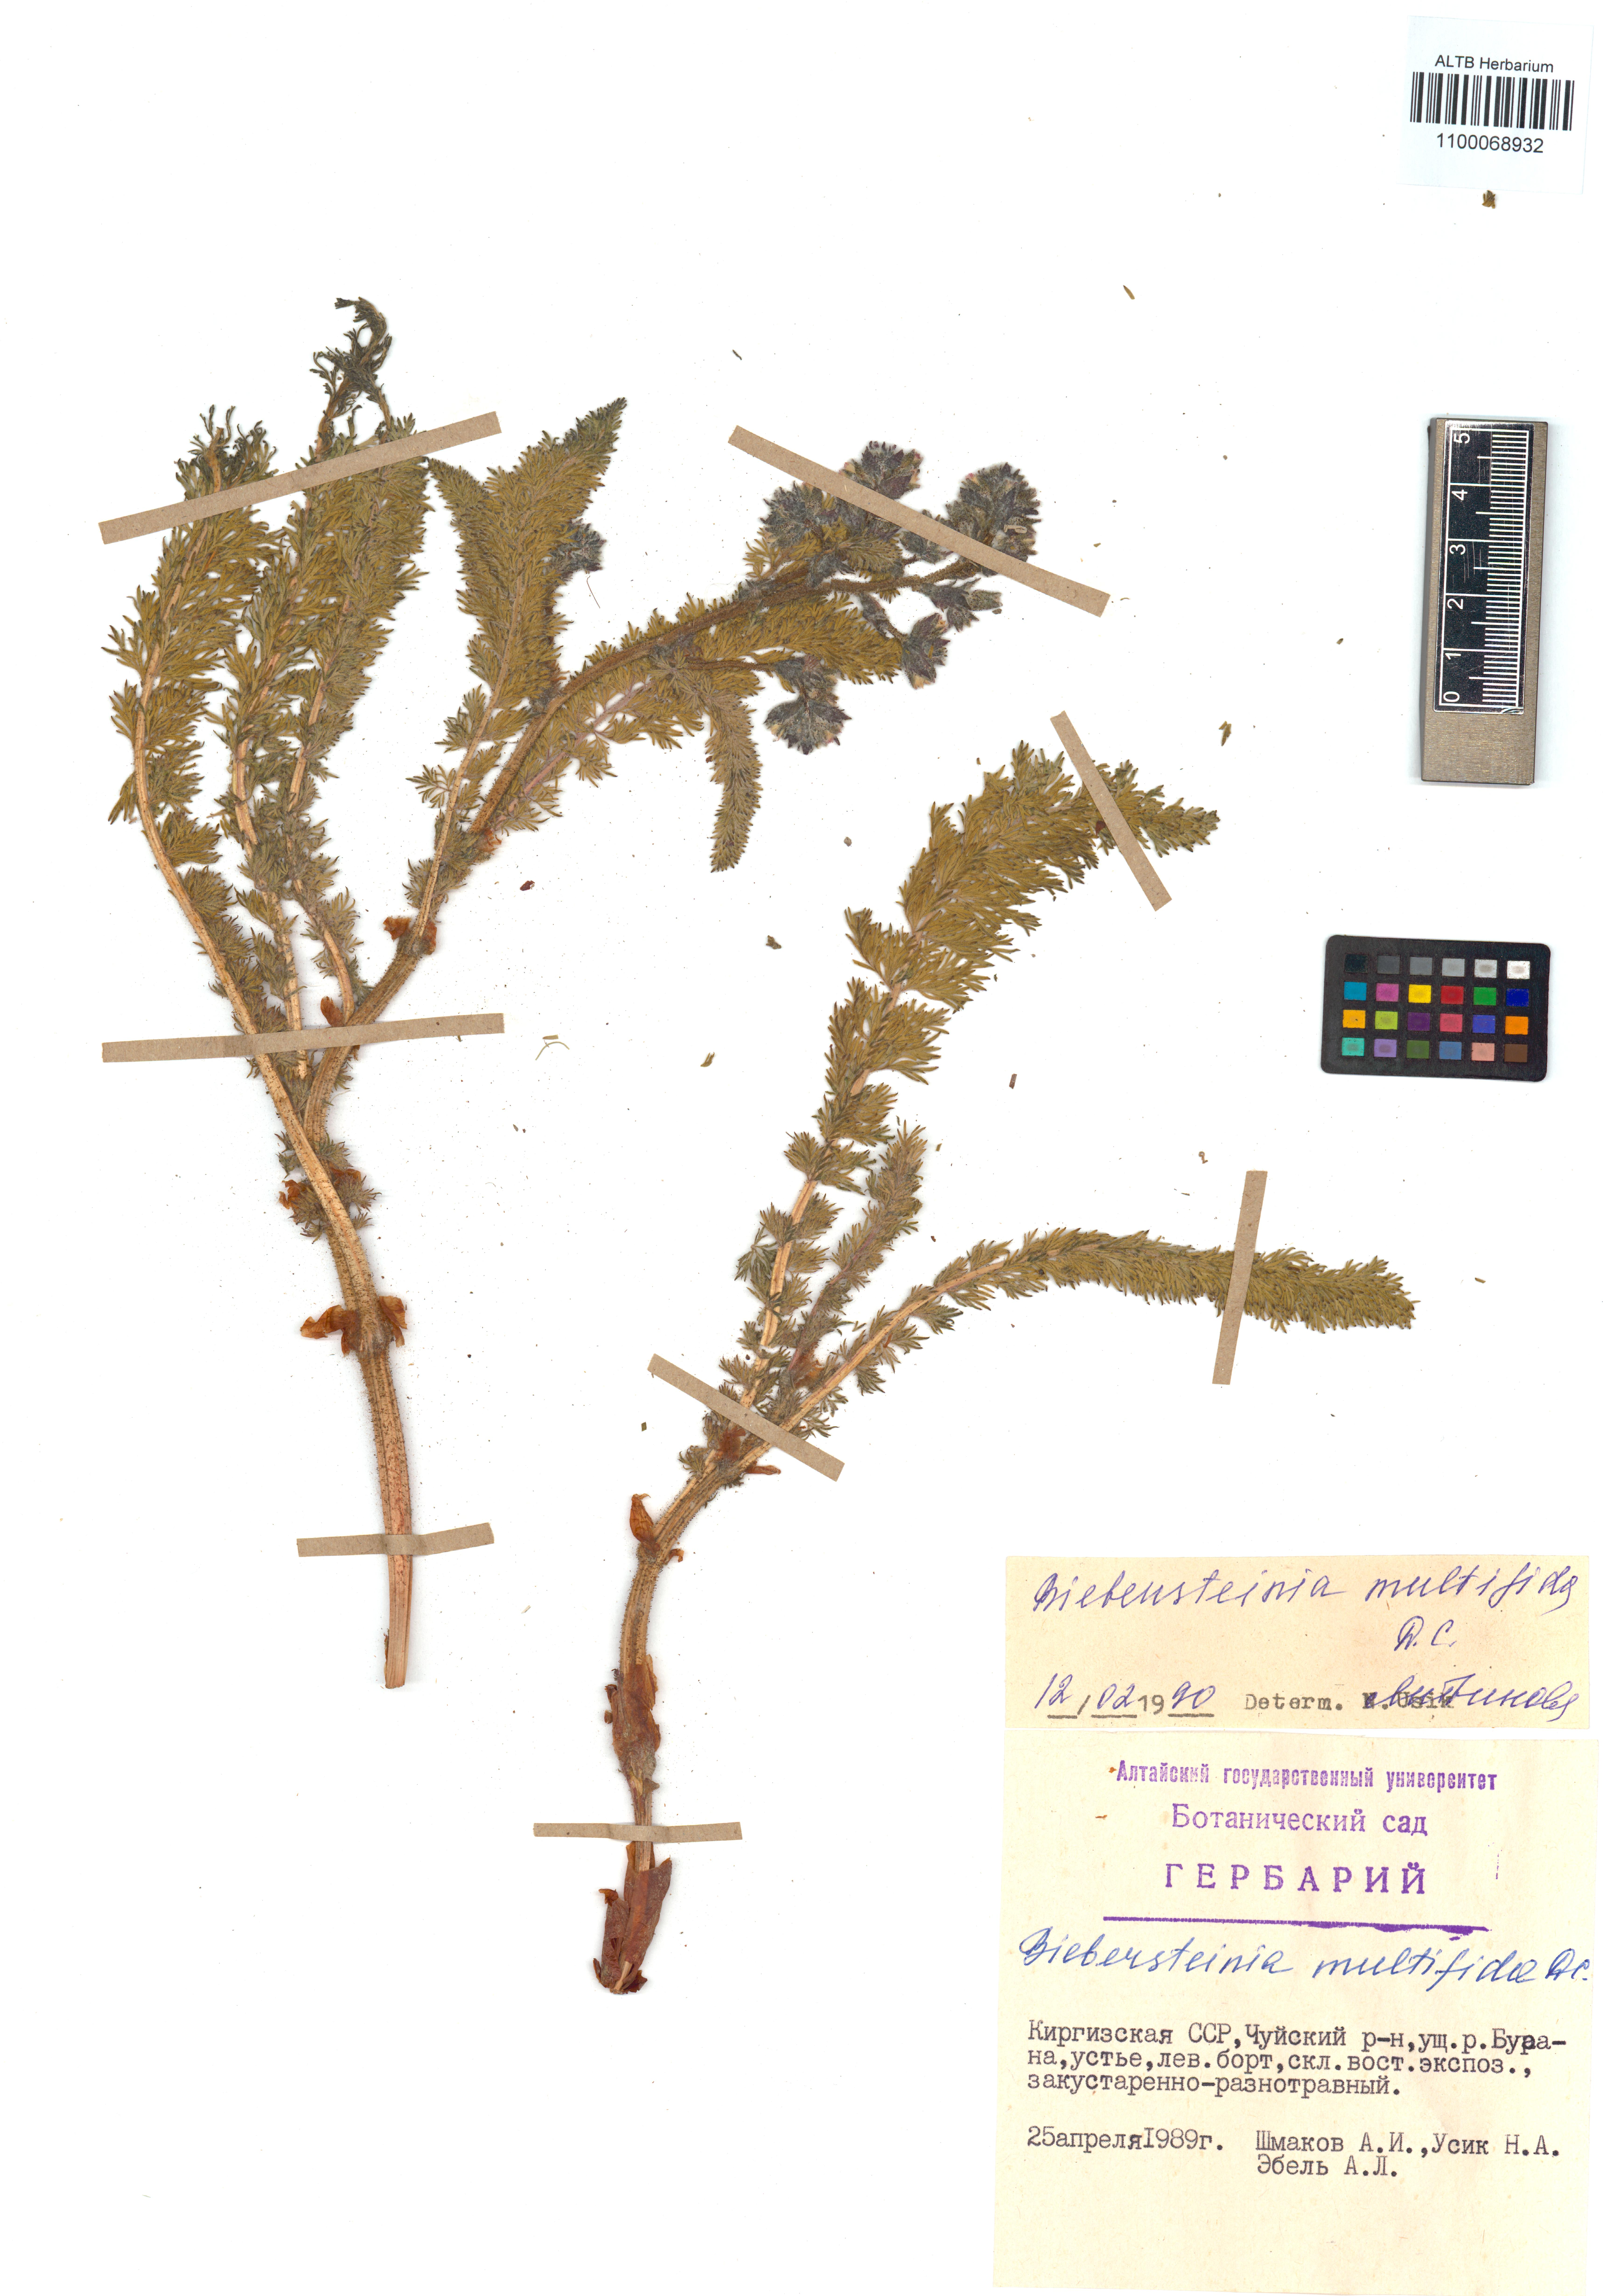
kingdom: Plantae
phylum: Tracheophyta
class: Magnoliopsida
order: Sapindales
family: Biebersteiniaceae
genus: Biebersteinia
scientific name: Biebersteinia multifida
